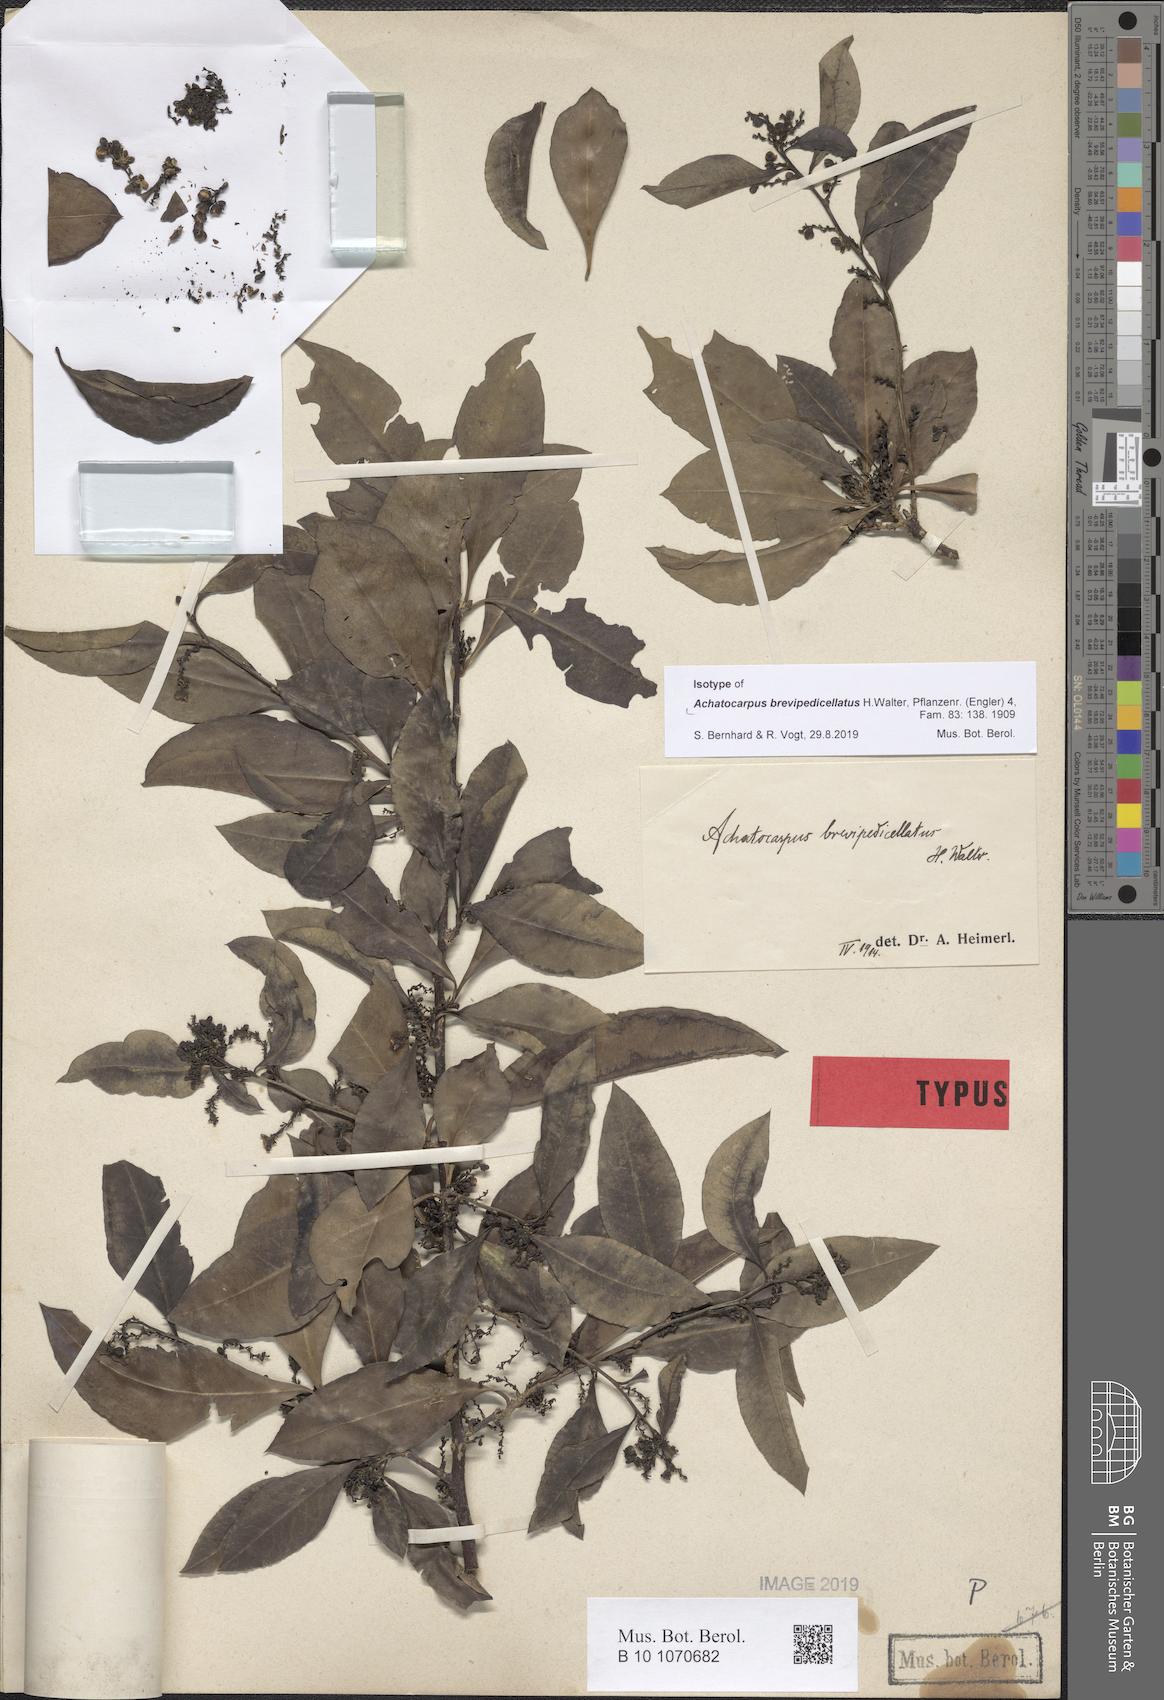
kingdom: Plantae
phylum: Tracheophyta
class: Magnoliopsida
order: Caryophyllales
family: Achatocarpaceae
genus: Achatocarpus
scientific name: Achatocarpus brevipedicellatus
